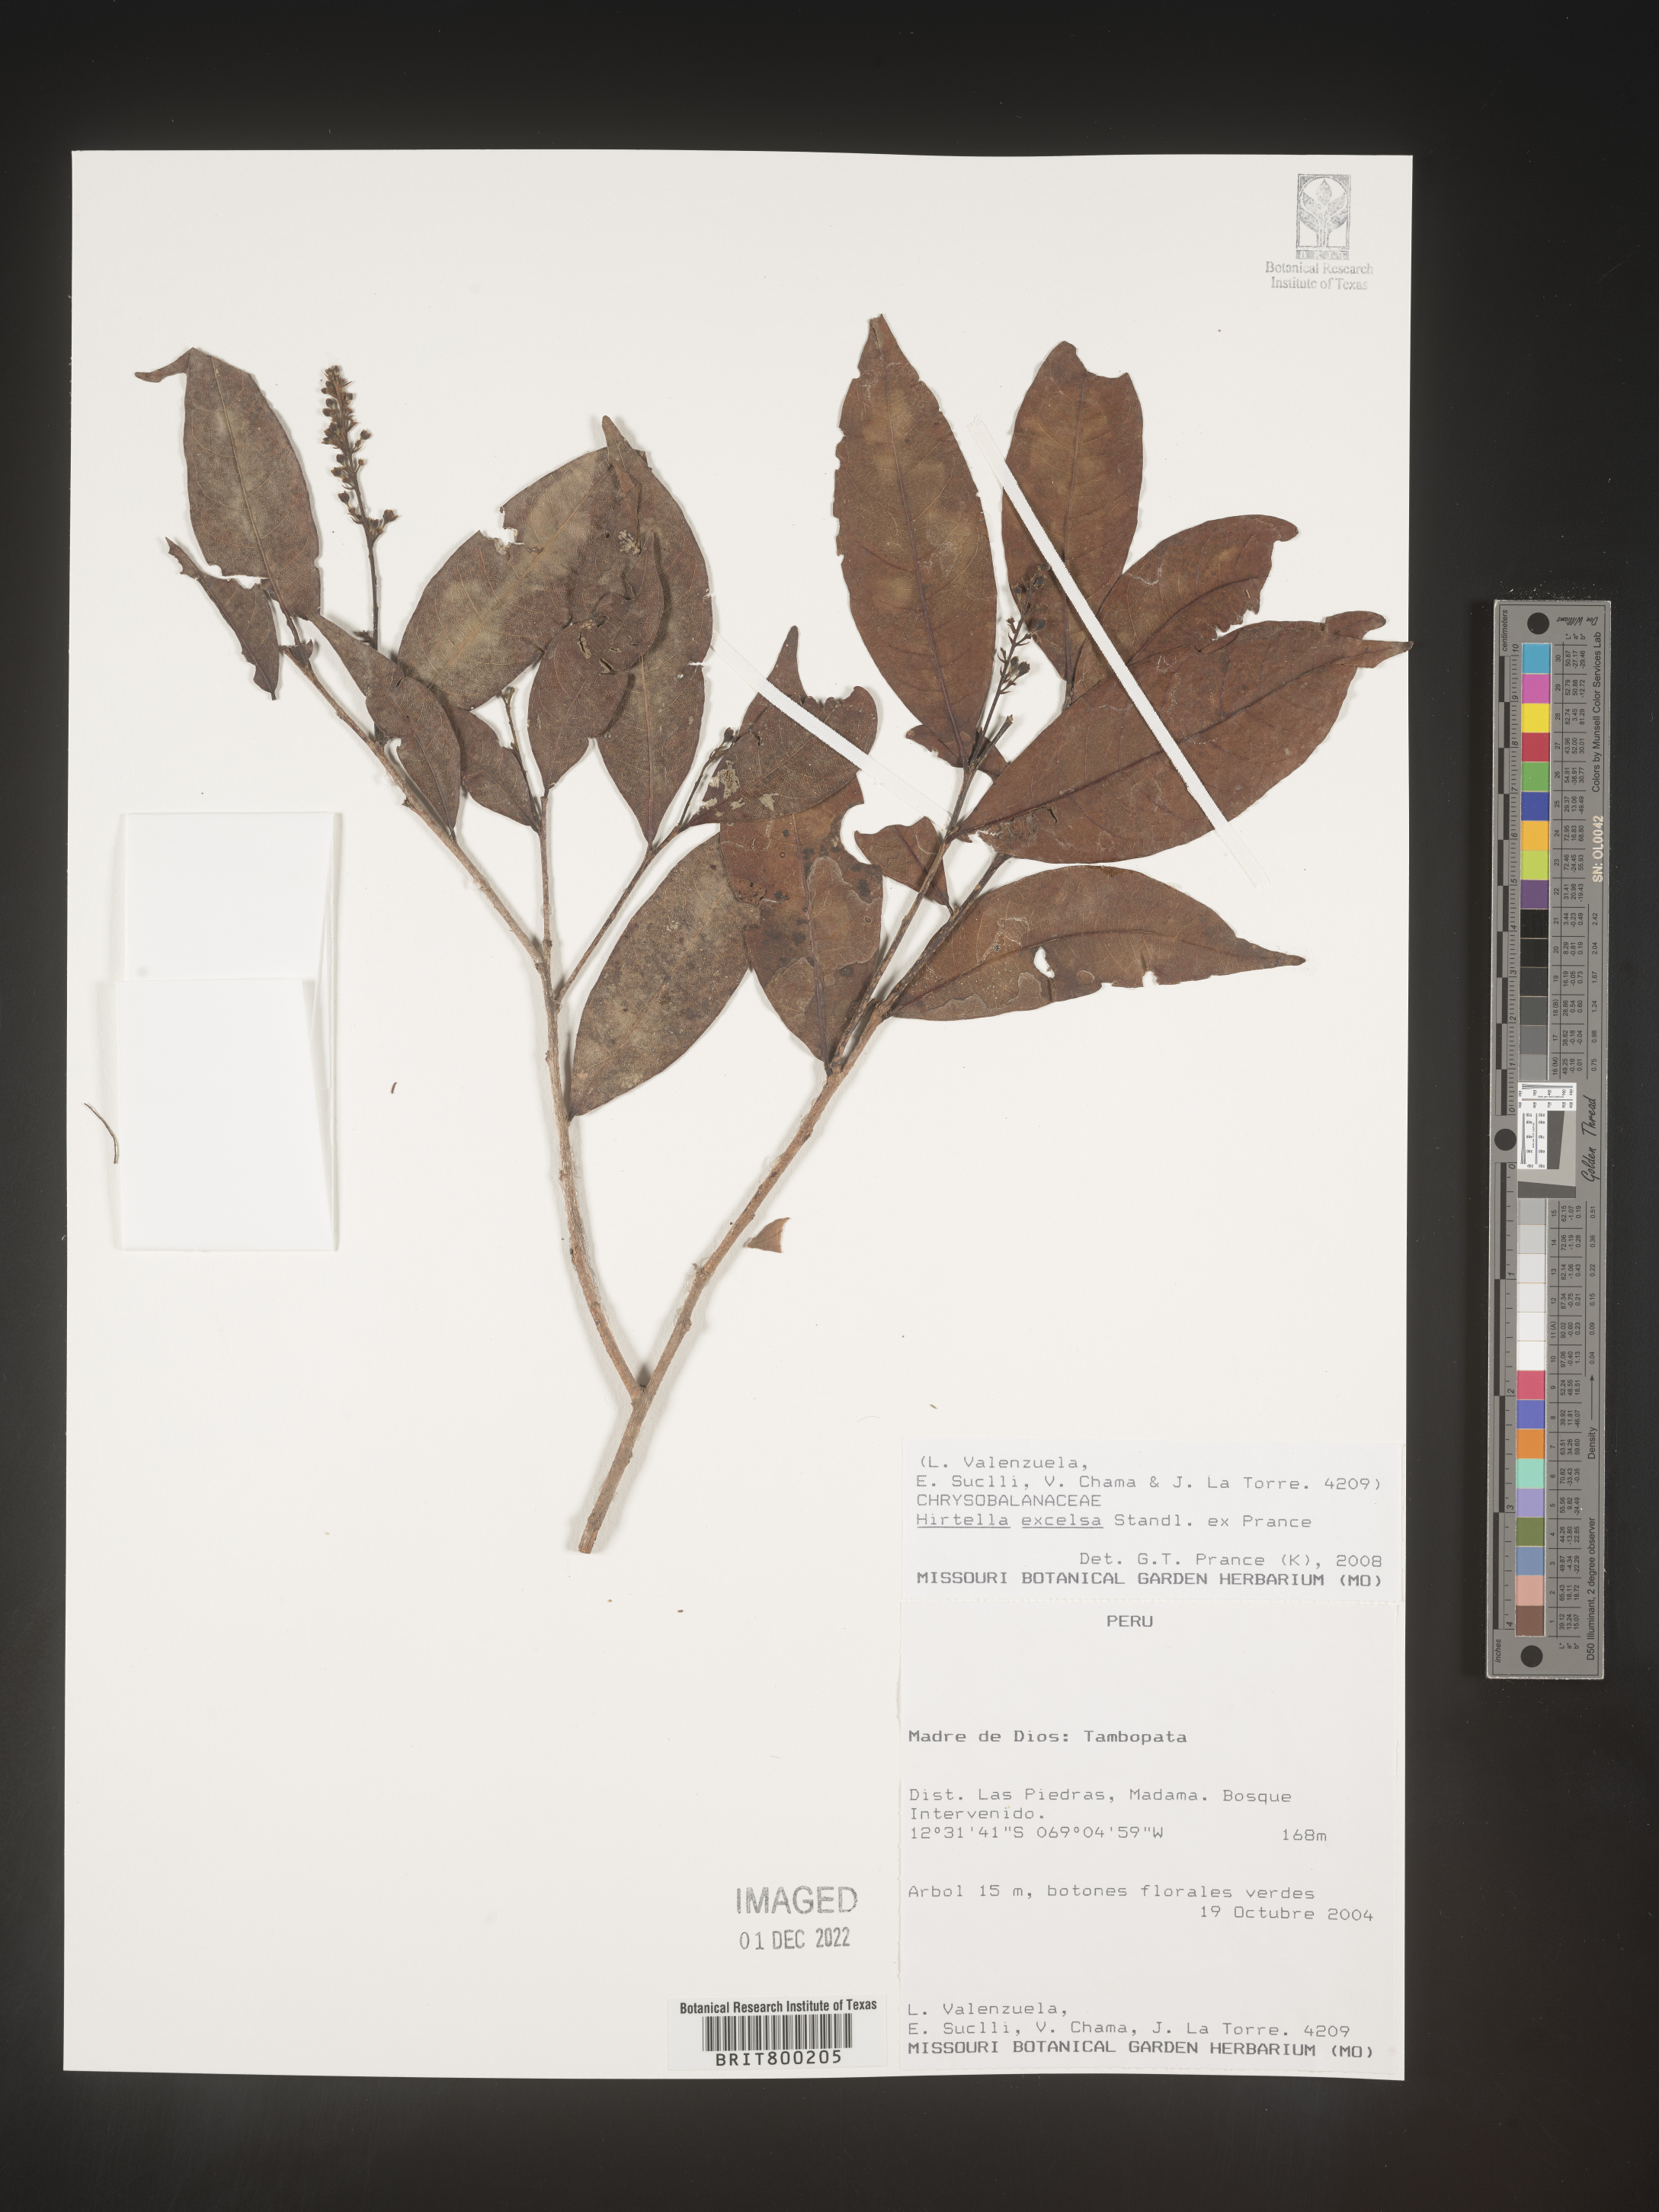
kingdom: Plantae
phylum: Tracheophyta
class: Magnoliopsida
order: Malpighiales
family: Chrysobalanaceae
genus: Hirtella
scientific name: Hirtella
